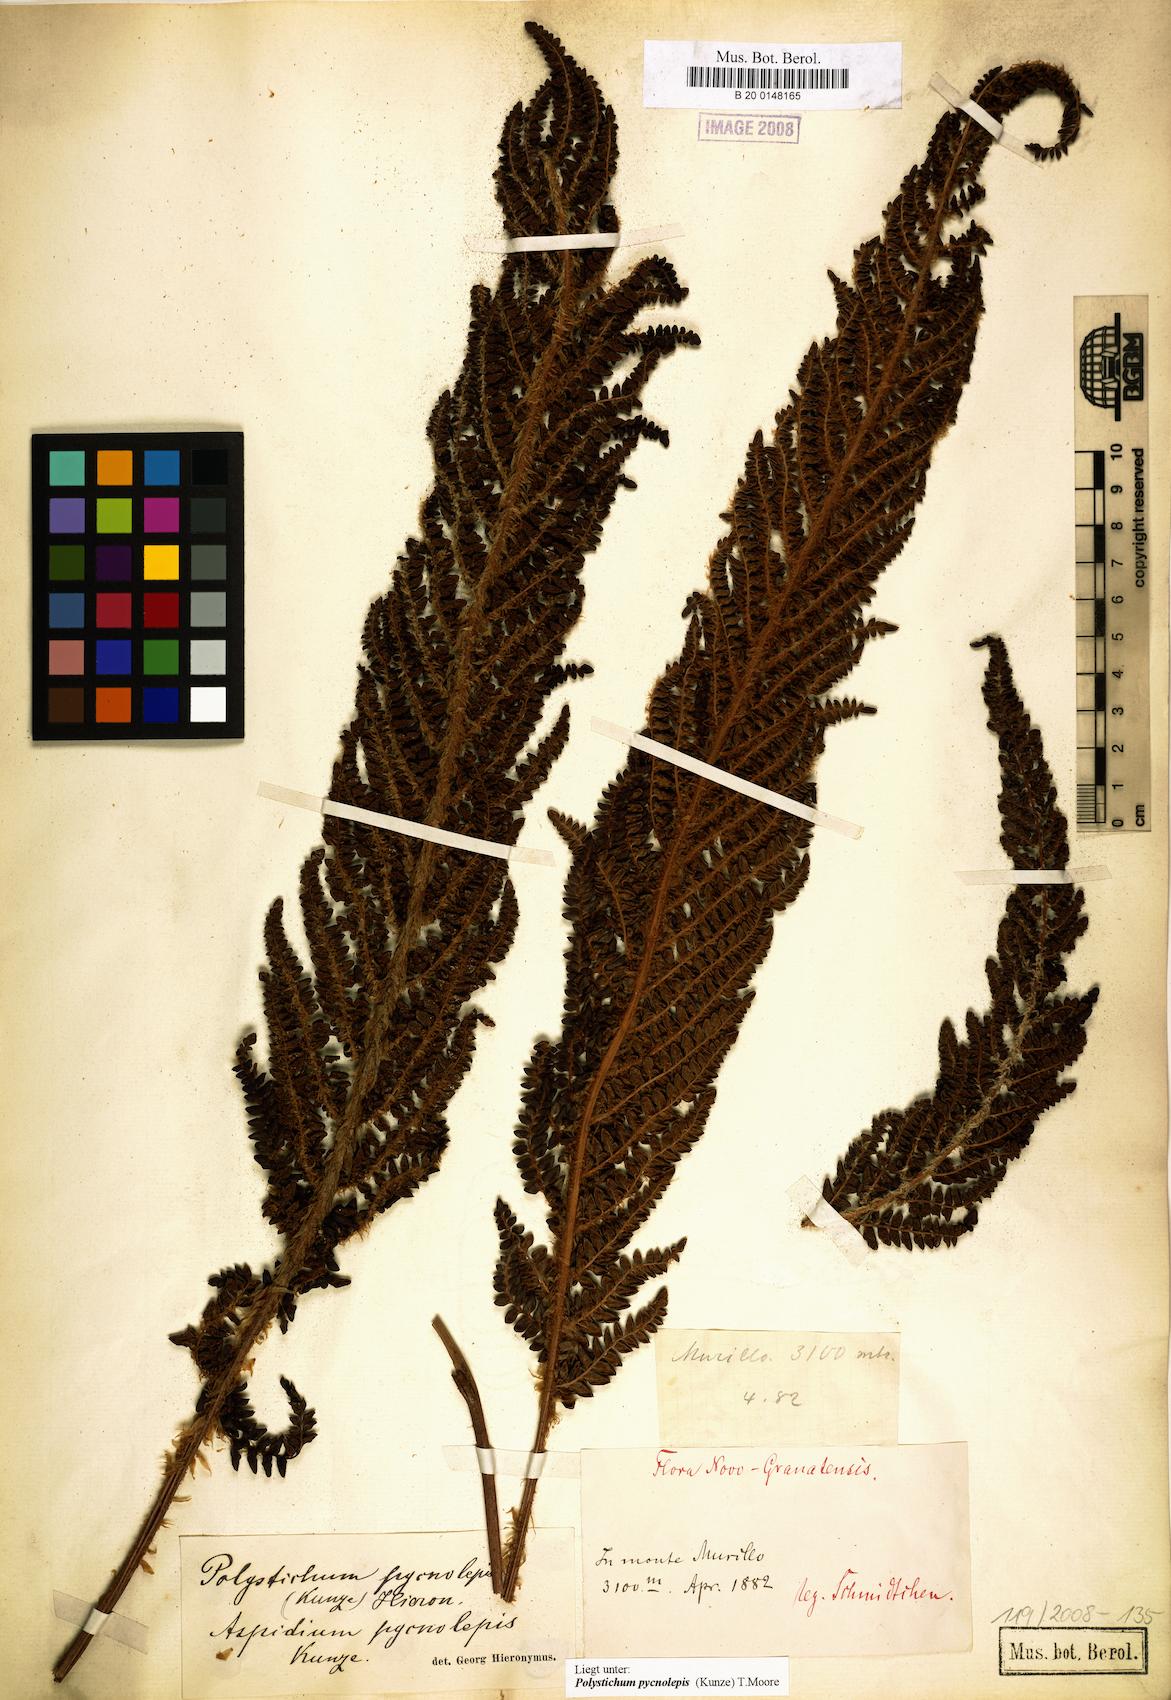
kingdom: Plantae
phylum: Tracheophyta
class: Polypodiopsida
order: Polypodiales
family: Dryopteridaceae
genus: Polystichum
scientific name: Polystichum pycnolepis
